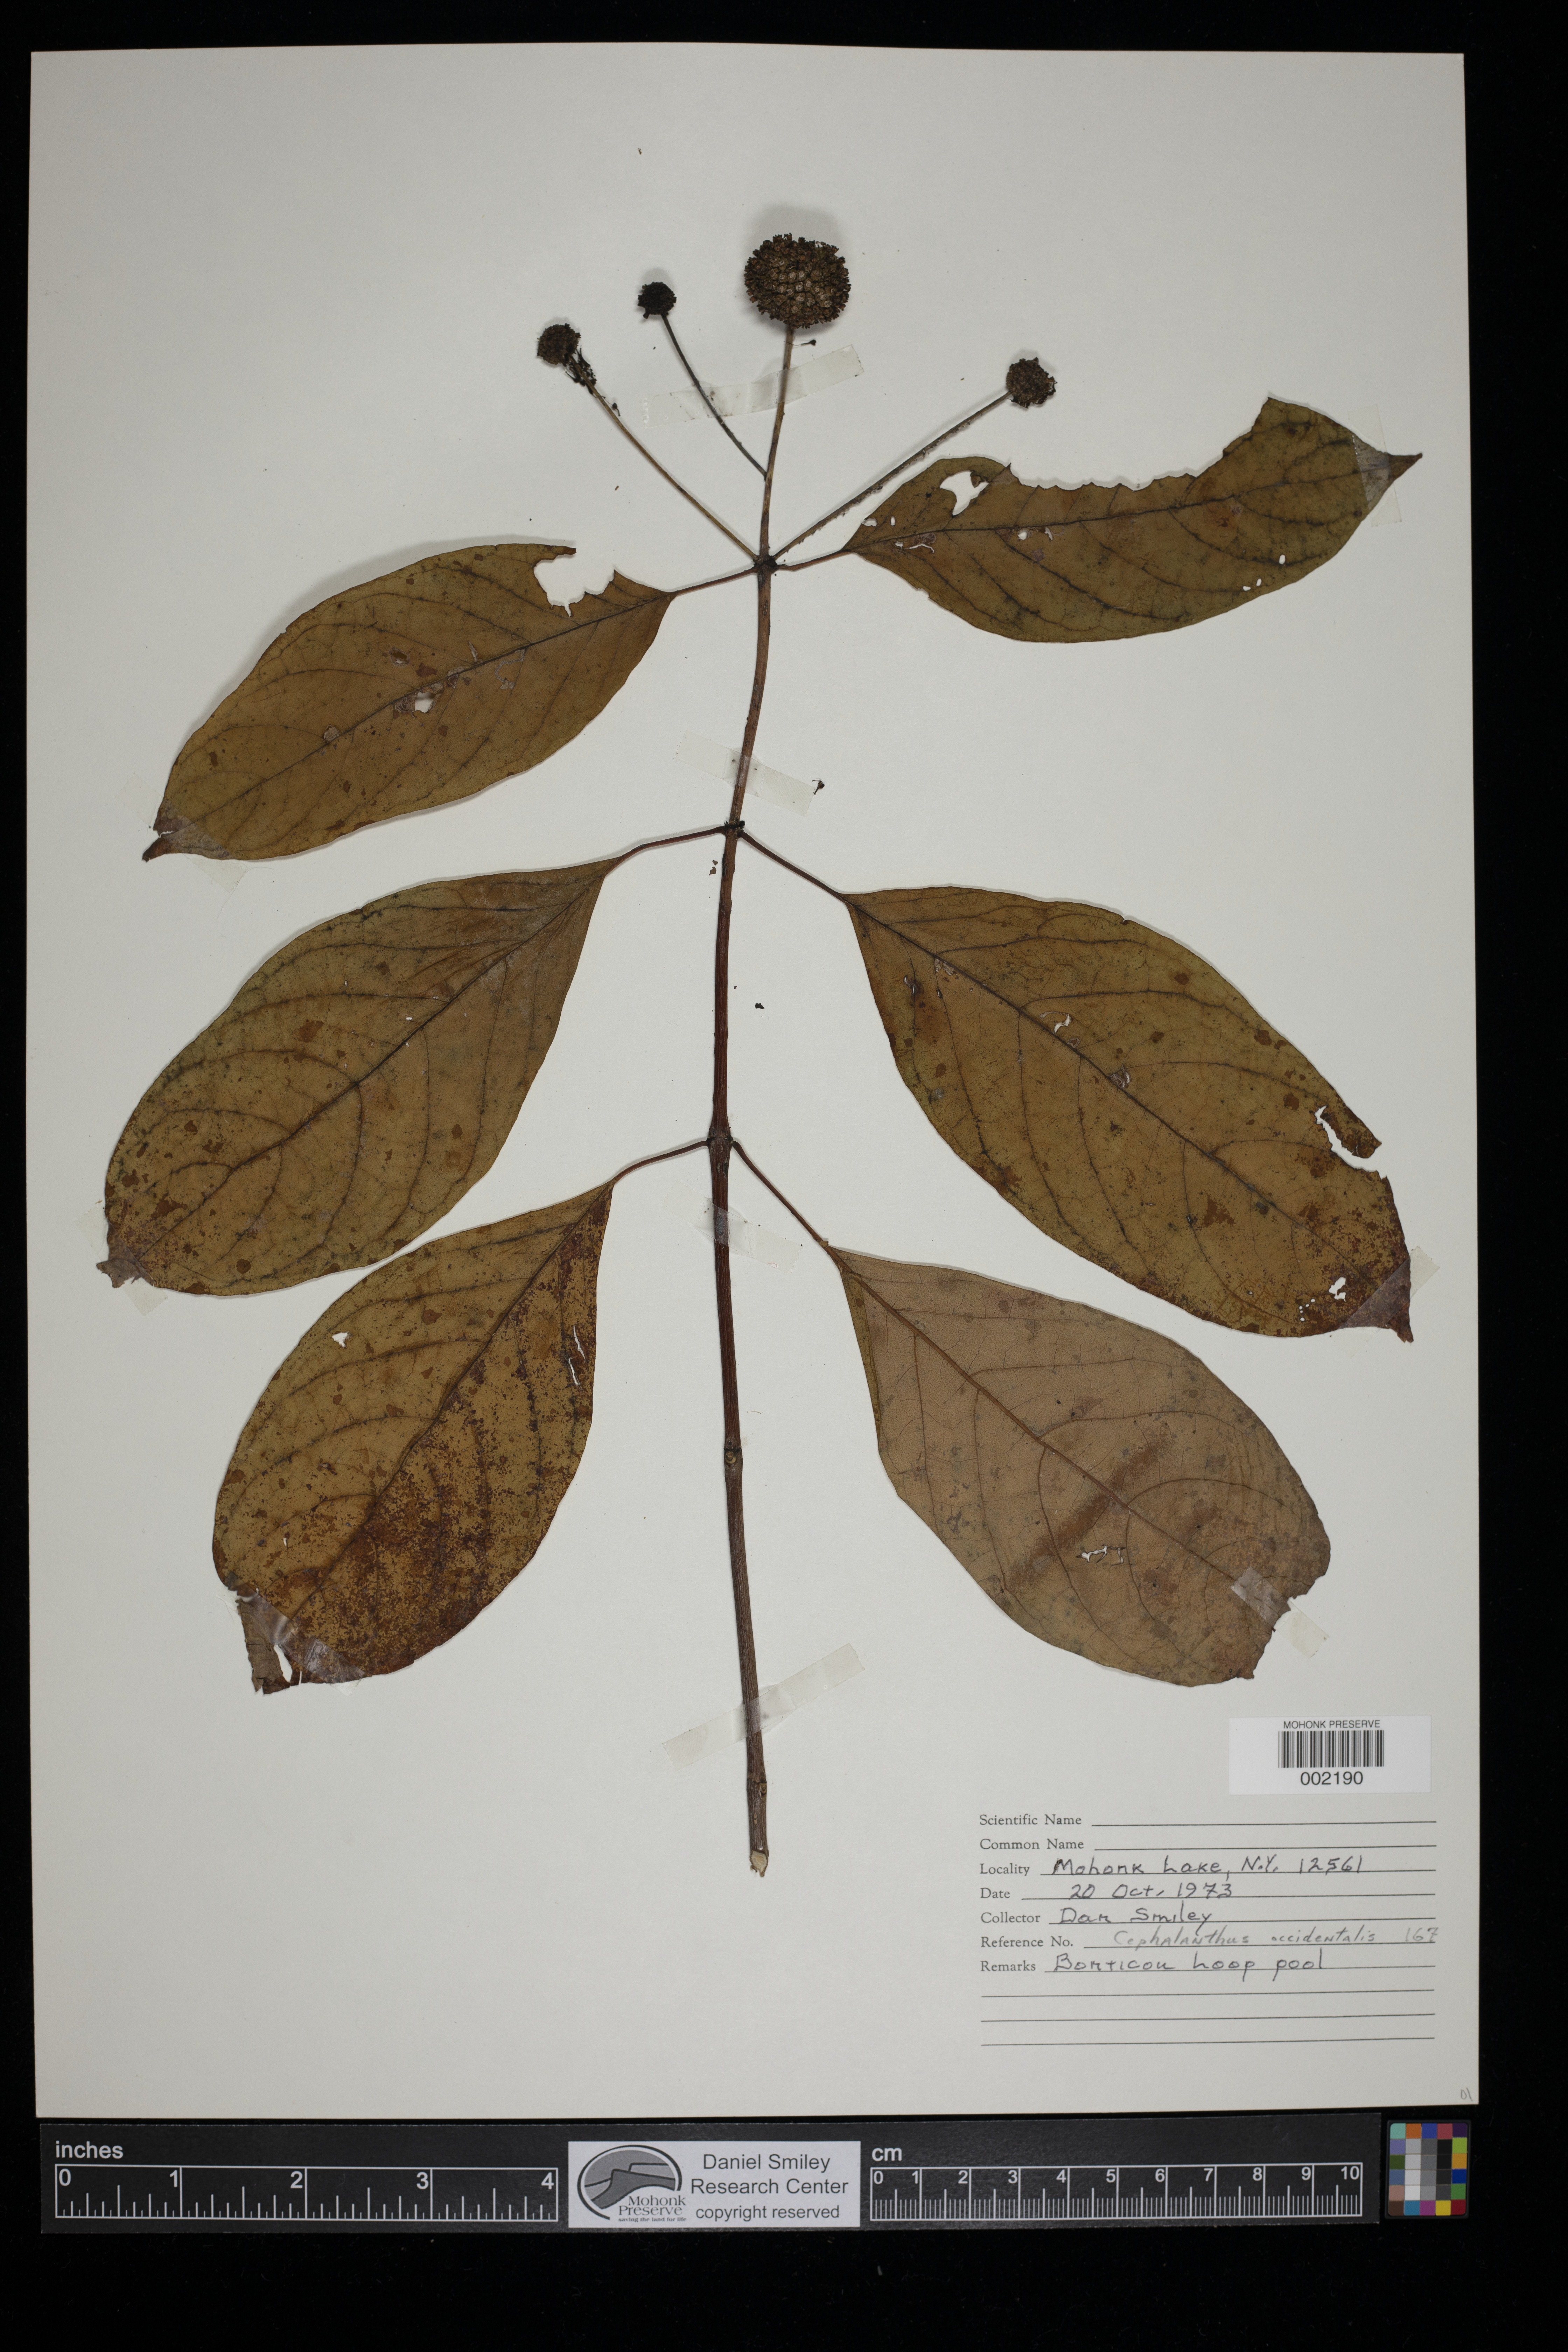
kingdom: Plantae
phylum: Tracheophyta
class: Magnoliopsida
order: Gentianales
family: Rubiaceae
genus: Cephalanthus
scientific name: Cephalanthus occidentalis
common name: Button-willow
